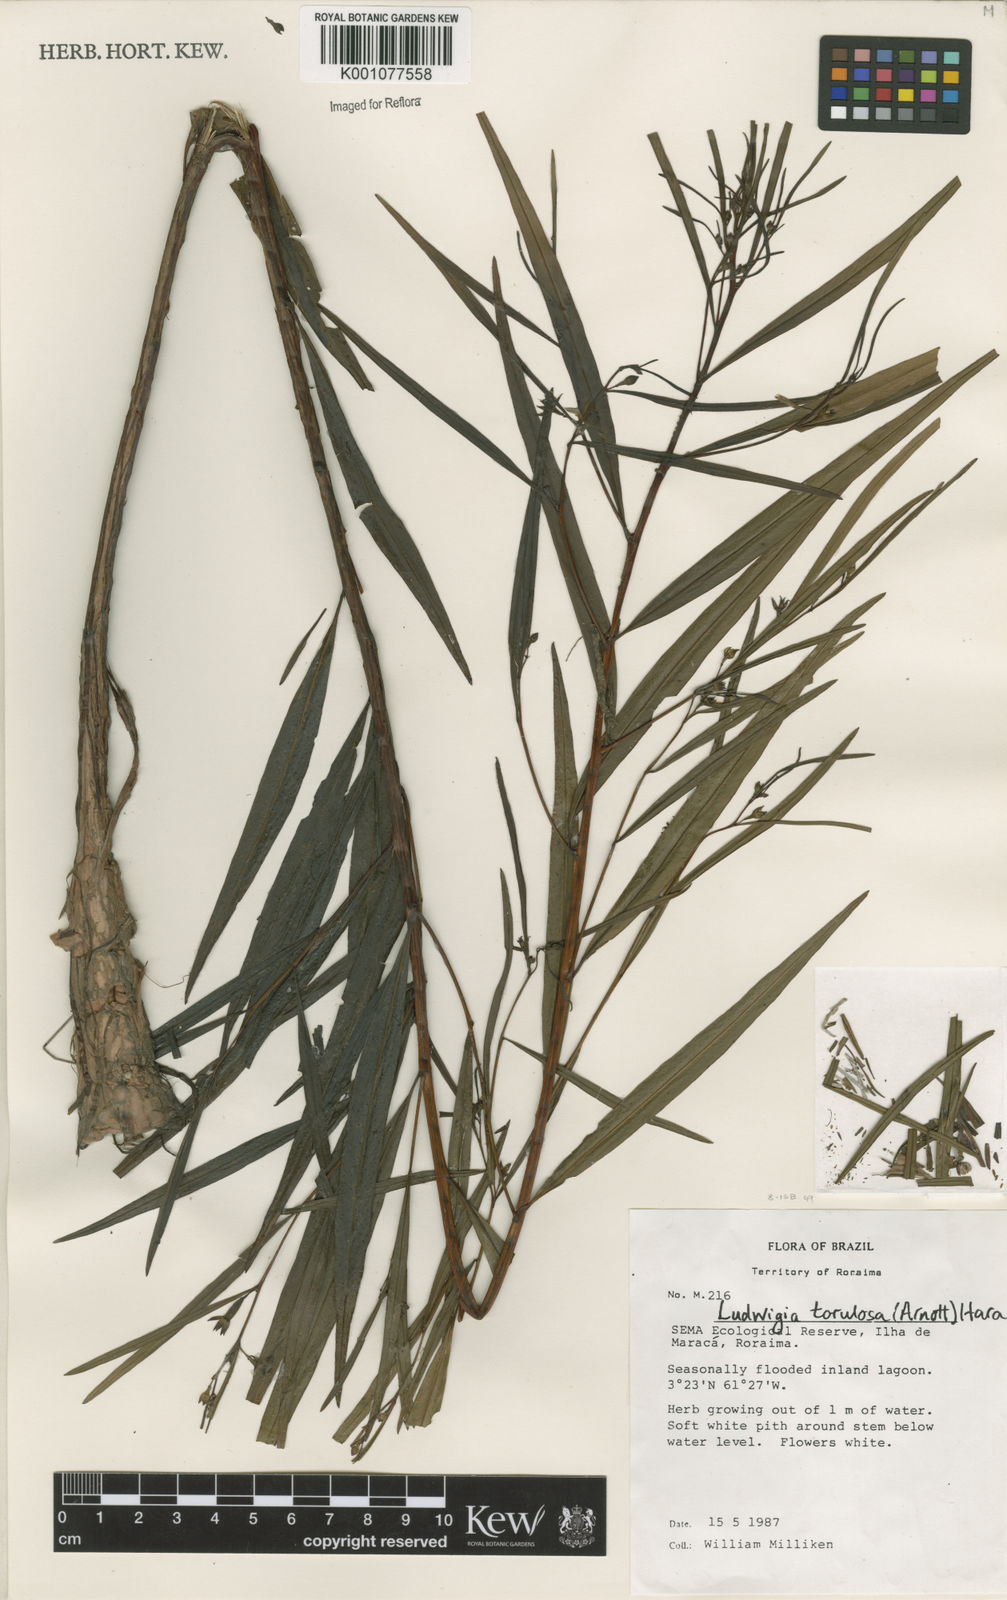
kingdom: Plantae
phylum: Tracheophyta
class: Magnoliopsida
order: Myrtales
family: Onagraceae
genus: Ludwigia
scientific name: Ludwigia torulosa
